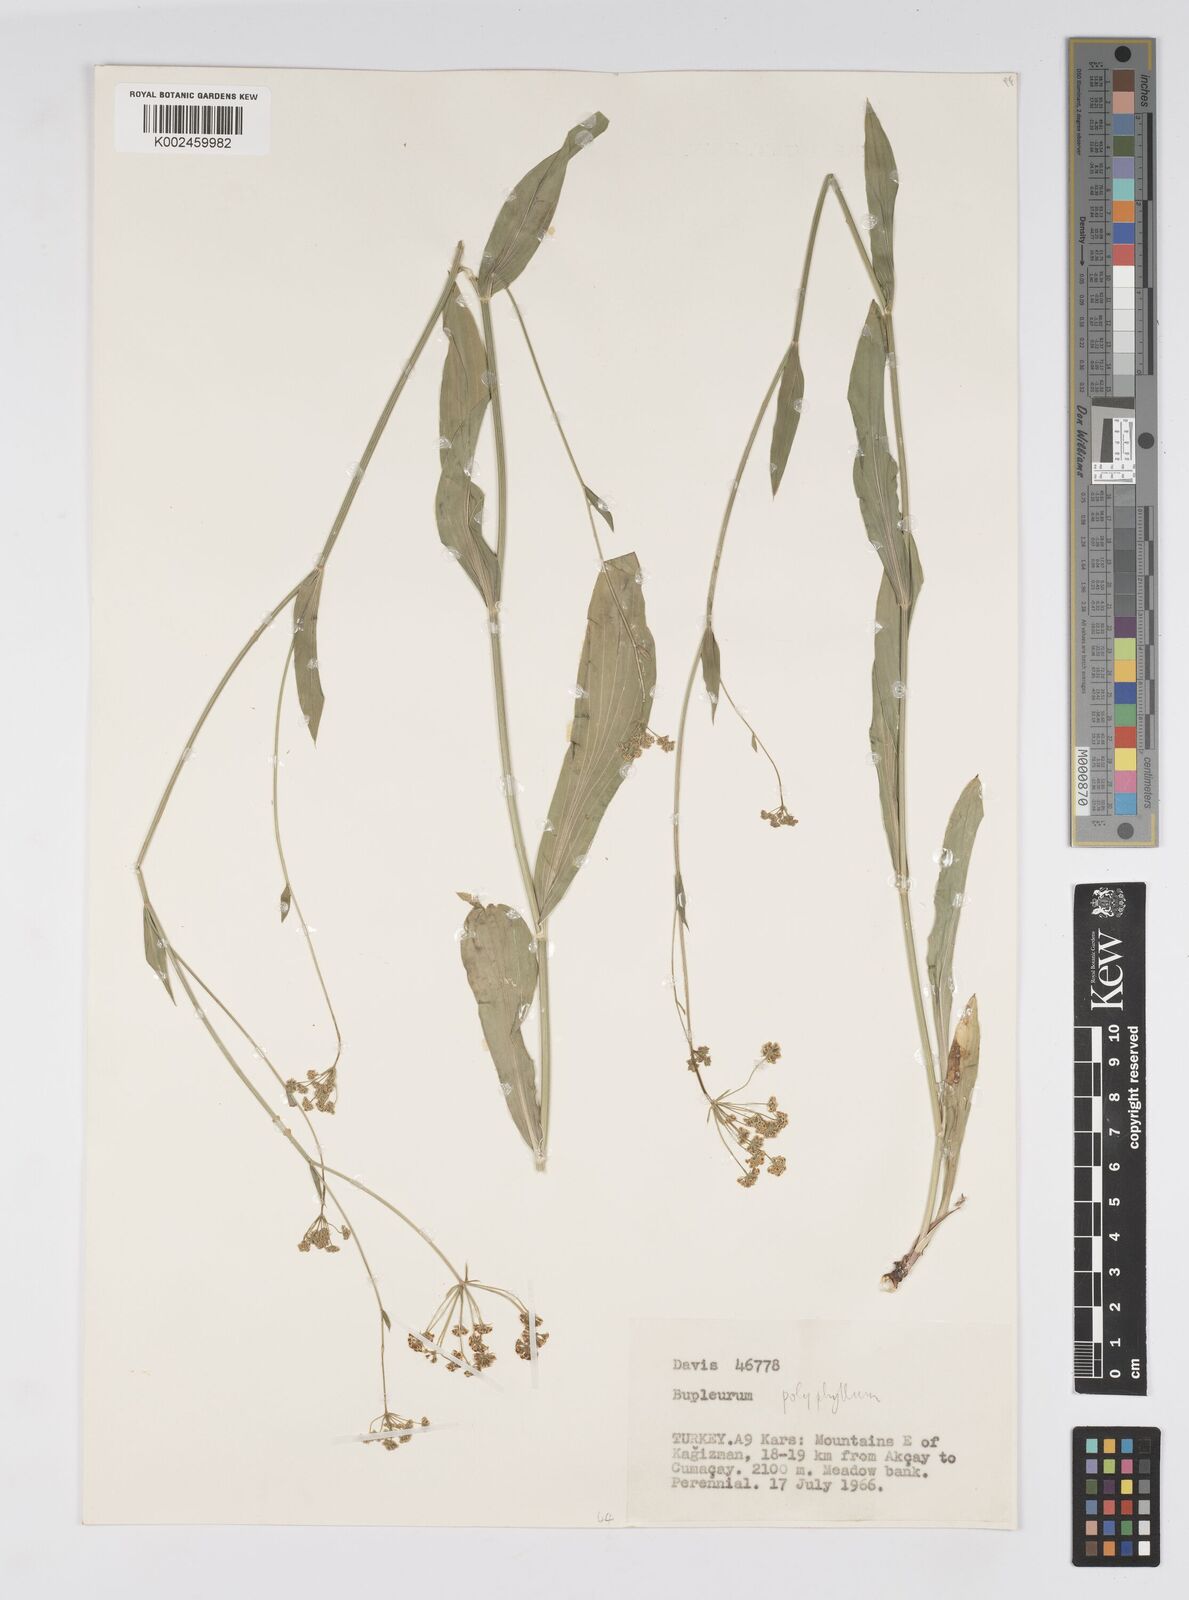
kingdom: Plantae
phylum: Tracheophyta
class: Magnoliopsida
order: Apiales
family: Apiaceae
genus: Bupleurum
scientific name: Bupleurum falcatum
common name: Sickle-leaved hare's-ear
